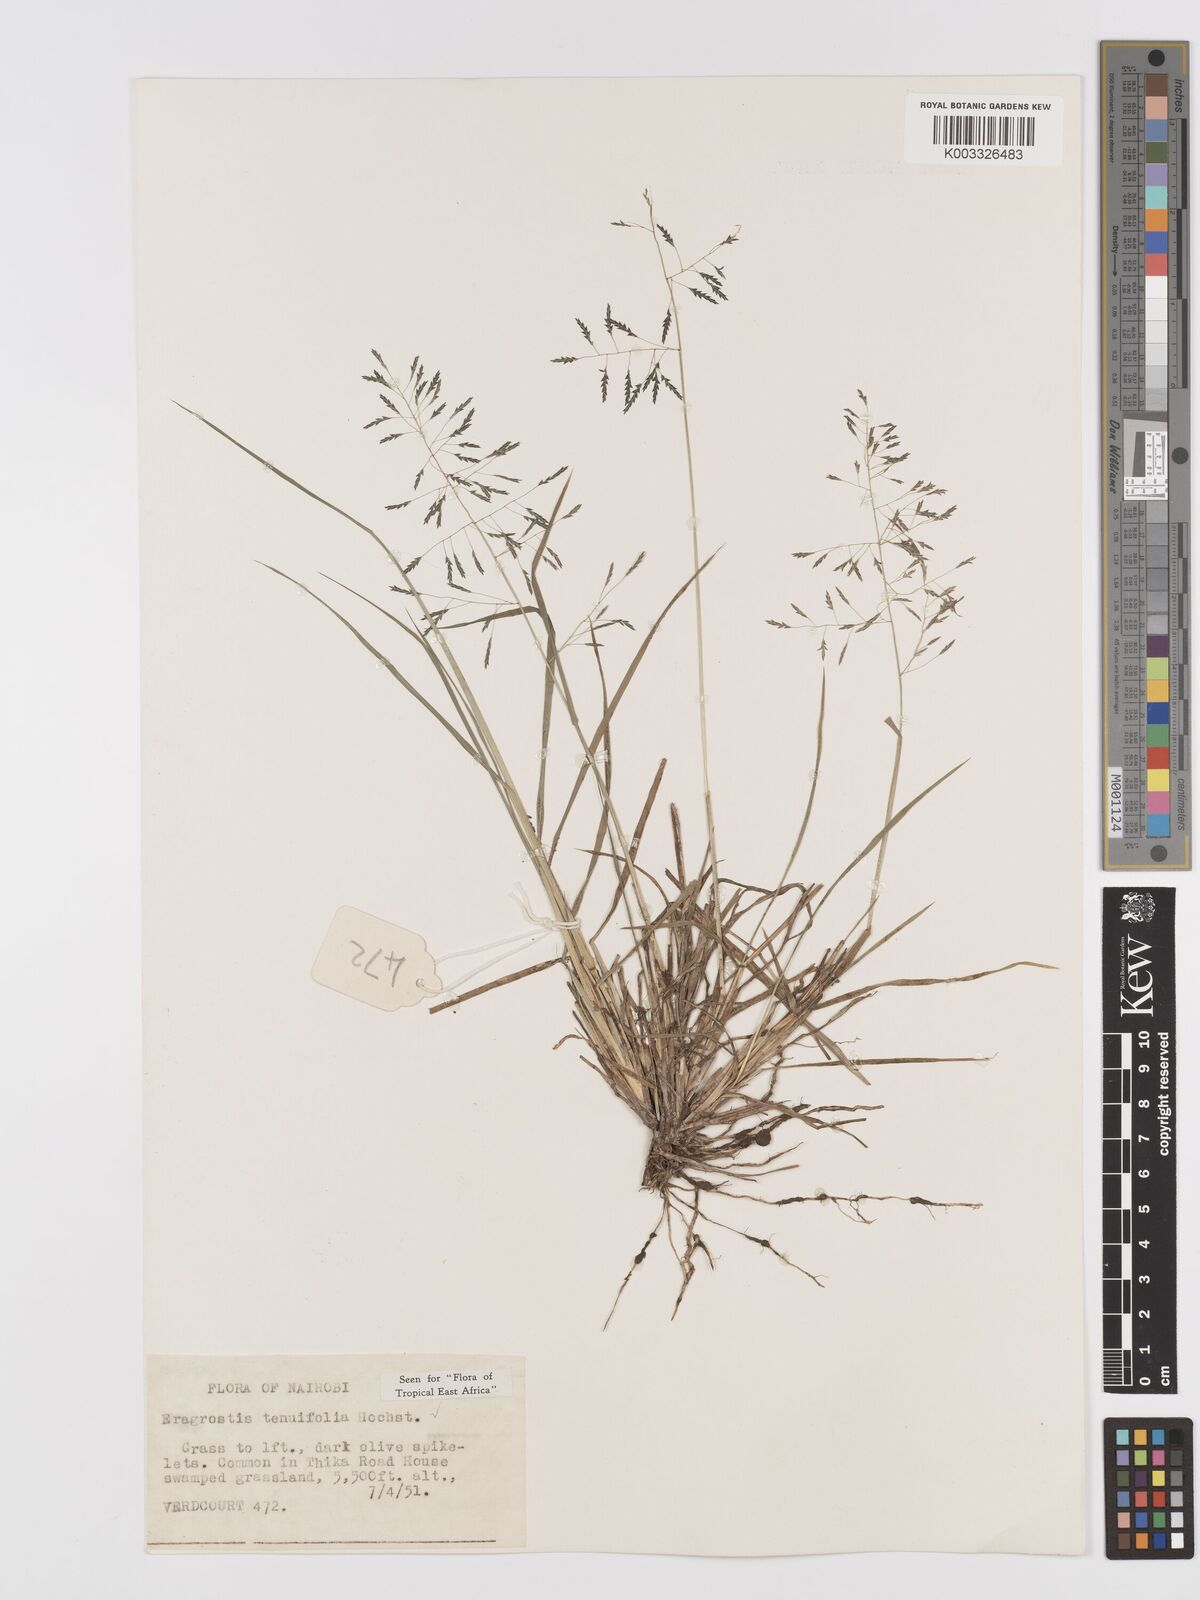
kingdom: Plantae
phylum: Tracheophyta
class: Liliopsida
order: Poales
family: Poaceae
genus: Eragrostis
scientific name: Eragrostis tenuifolia
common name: Elastic grass
